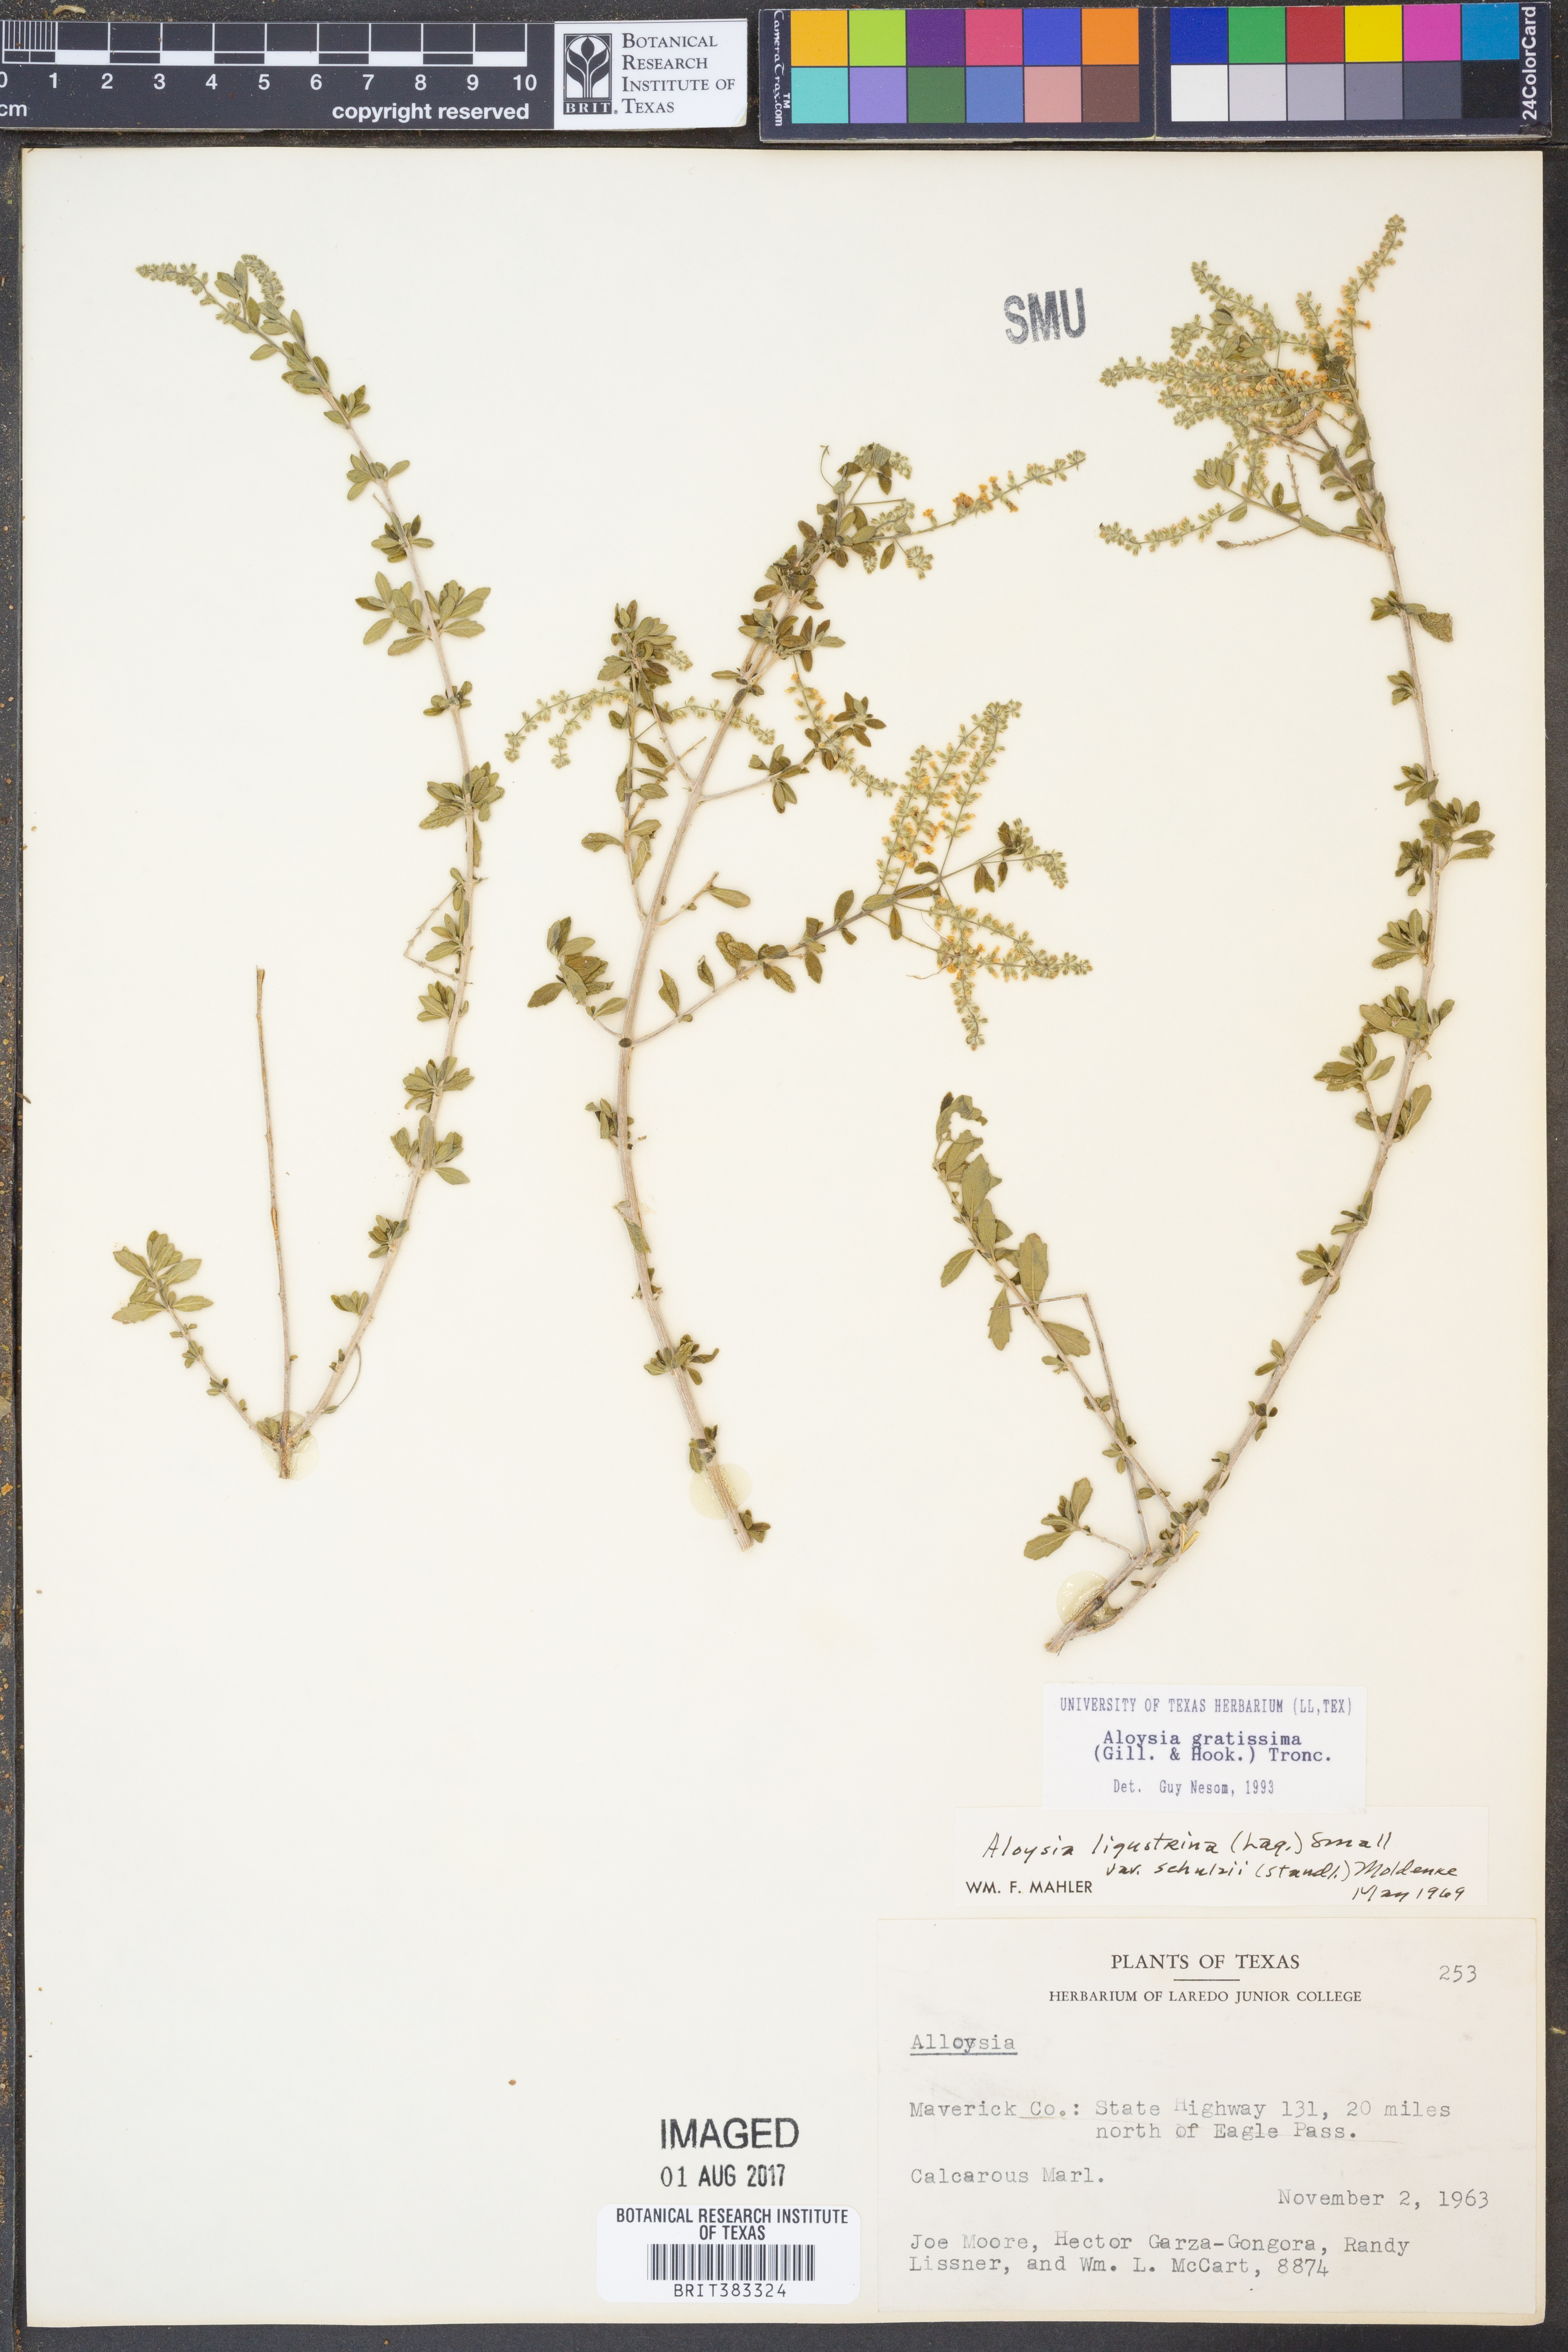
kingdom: Plantae
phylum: Tracheophyta
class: Magnoliopsida
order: Lamiales
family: Verbenaceae
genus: Aloysia
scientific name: Aloysia gratissima
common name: Common bee-brush
